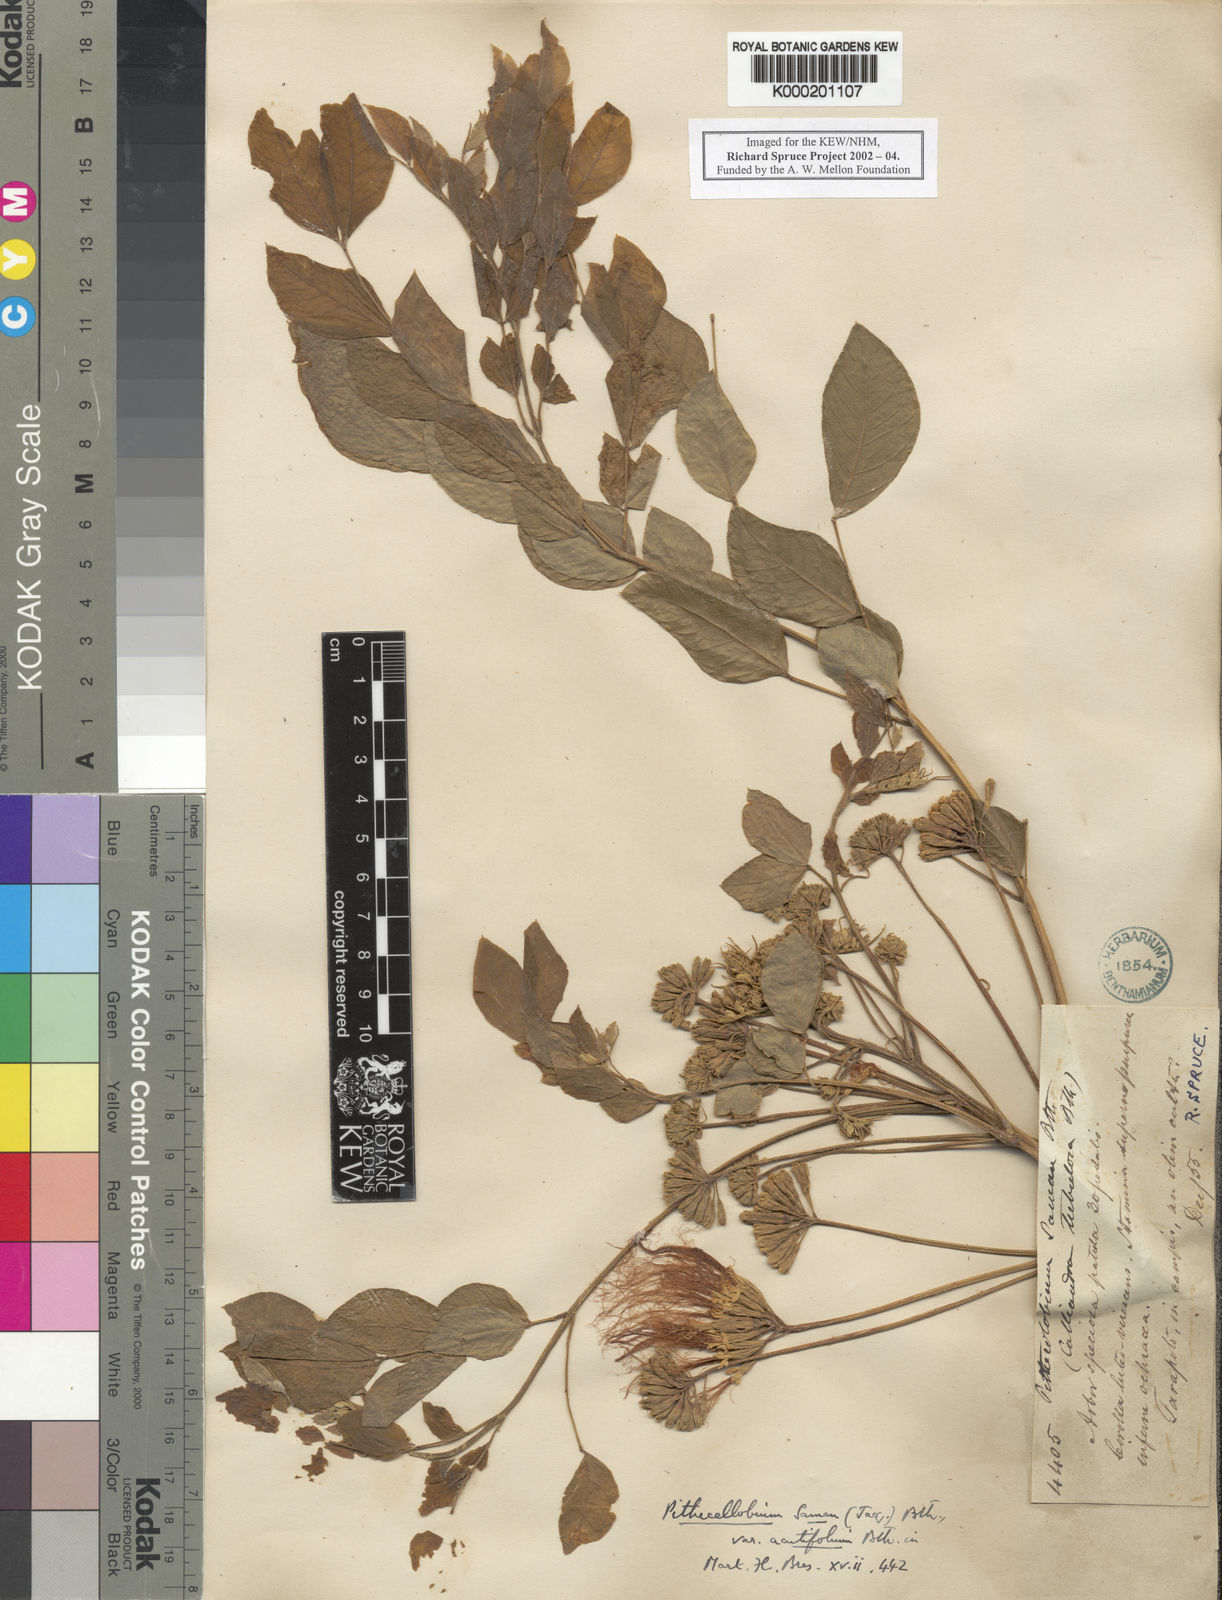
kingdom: Plantae
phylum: Tracheophyta
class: Magnoliopsida
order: Fabales
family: Fabaceae
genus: Samanea
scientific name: Samanea saman
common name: Raintree
